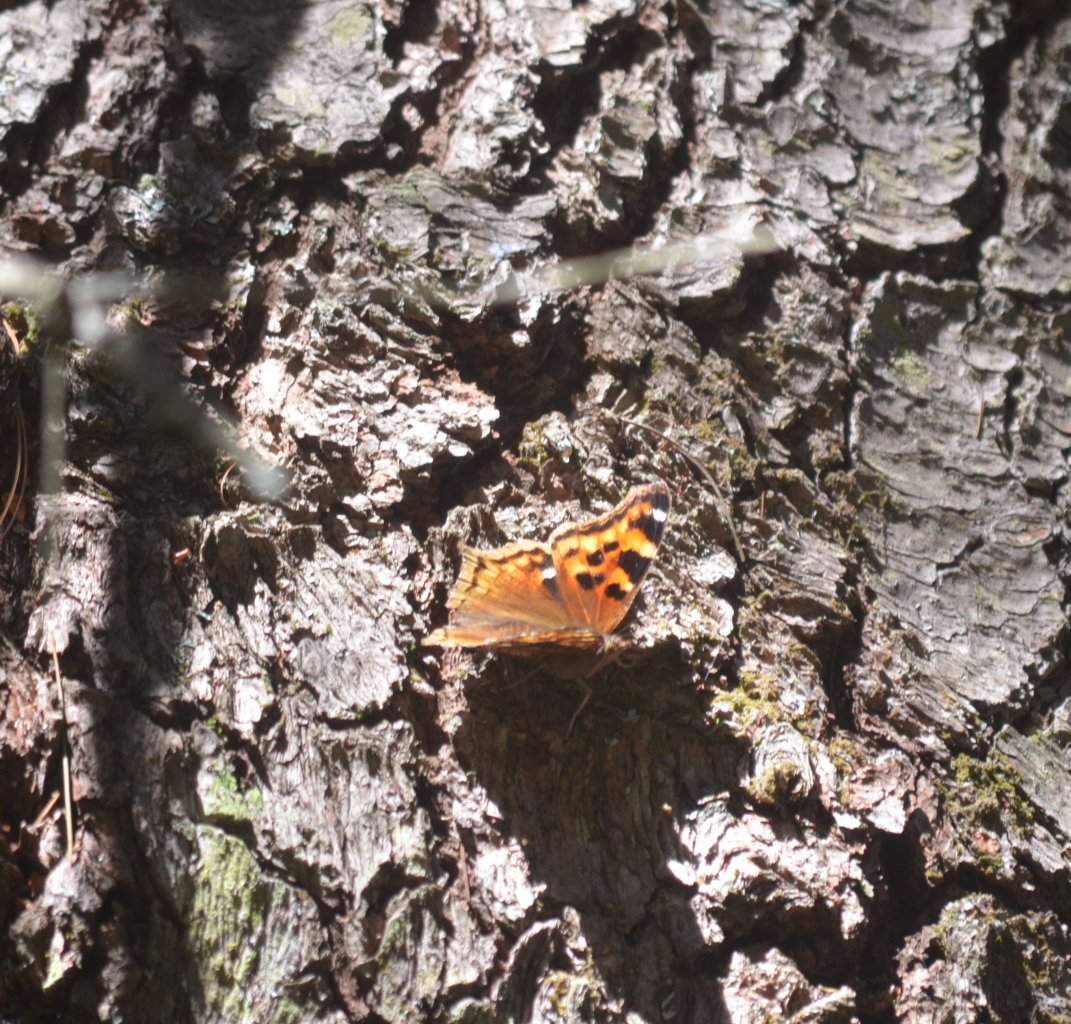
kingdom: Animalia
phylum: Arthropoda
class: Insecta
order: Lepidoptera
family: Nymphalidae
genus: Polygonia
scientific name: Polygonia vaualbum
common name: Compton Tortoiseshell
